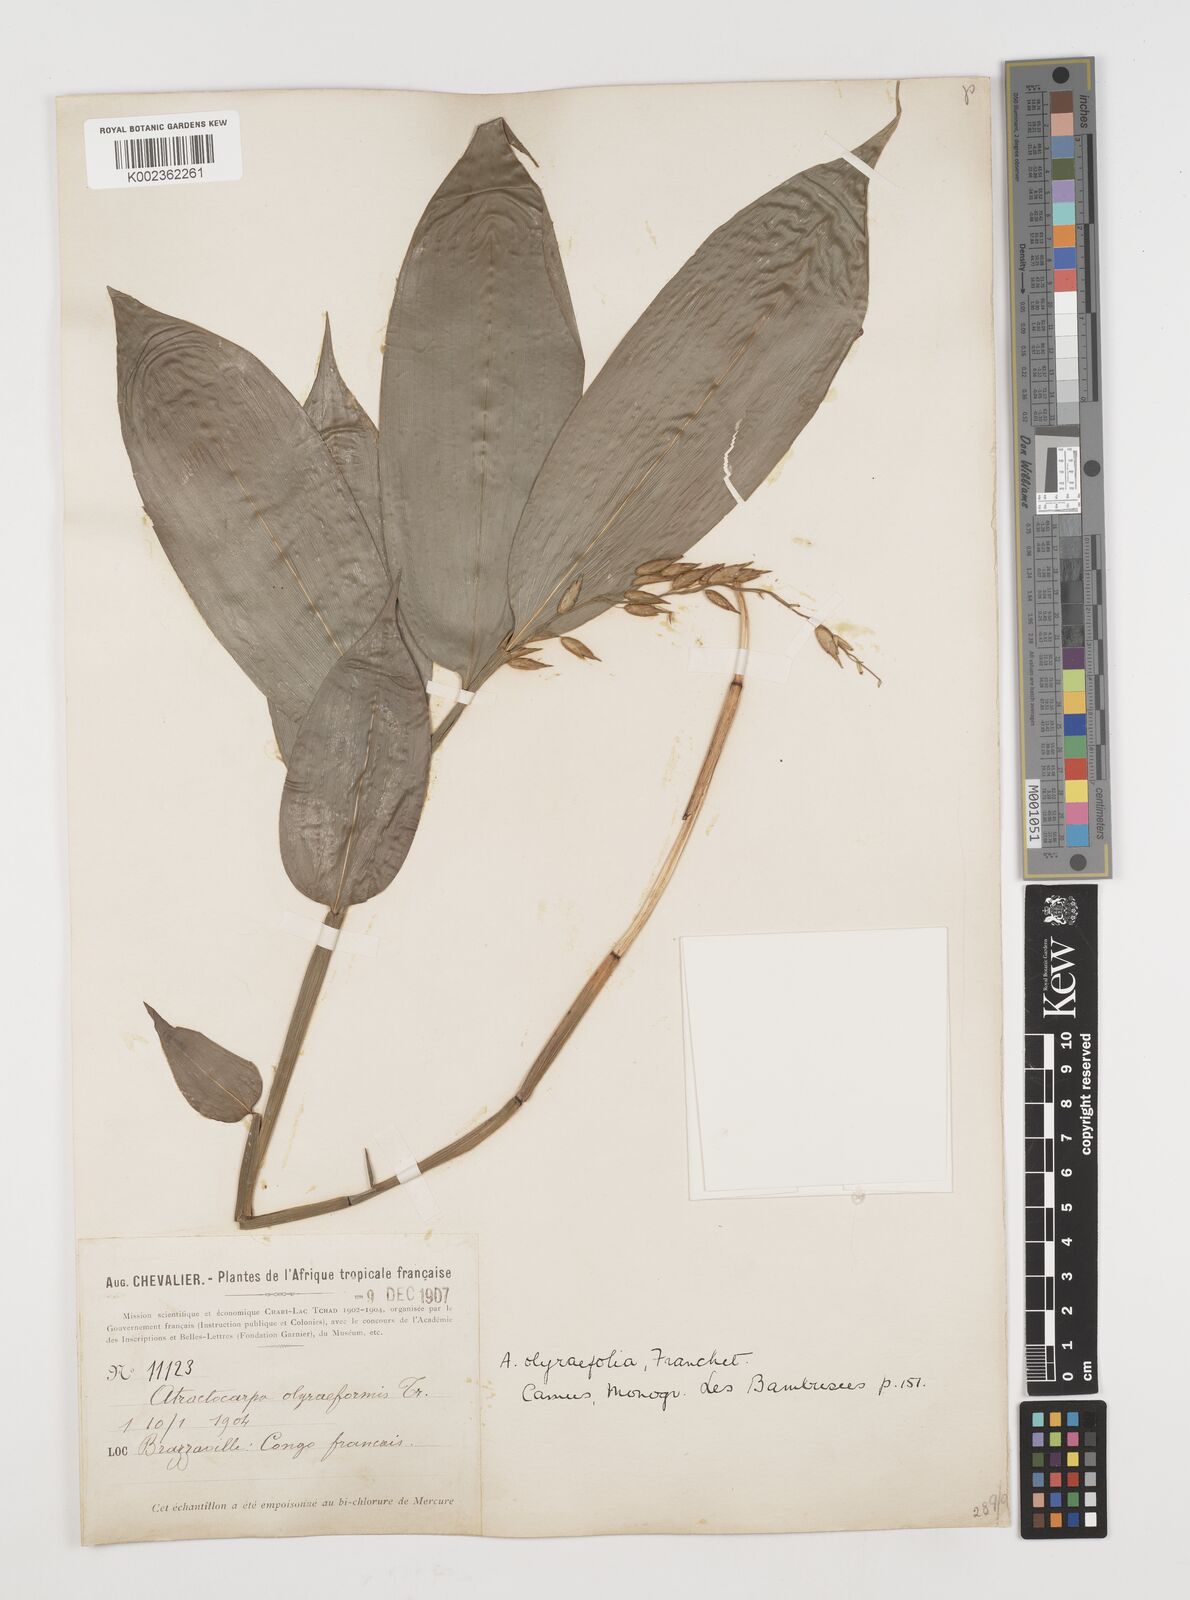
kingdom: Plantae
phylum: Tracheophyta
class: Liliopsida
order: Poales
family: Poaceae
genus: Puelia
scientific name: Puelia olyriformis
